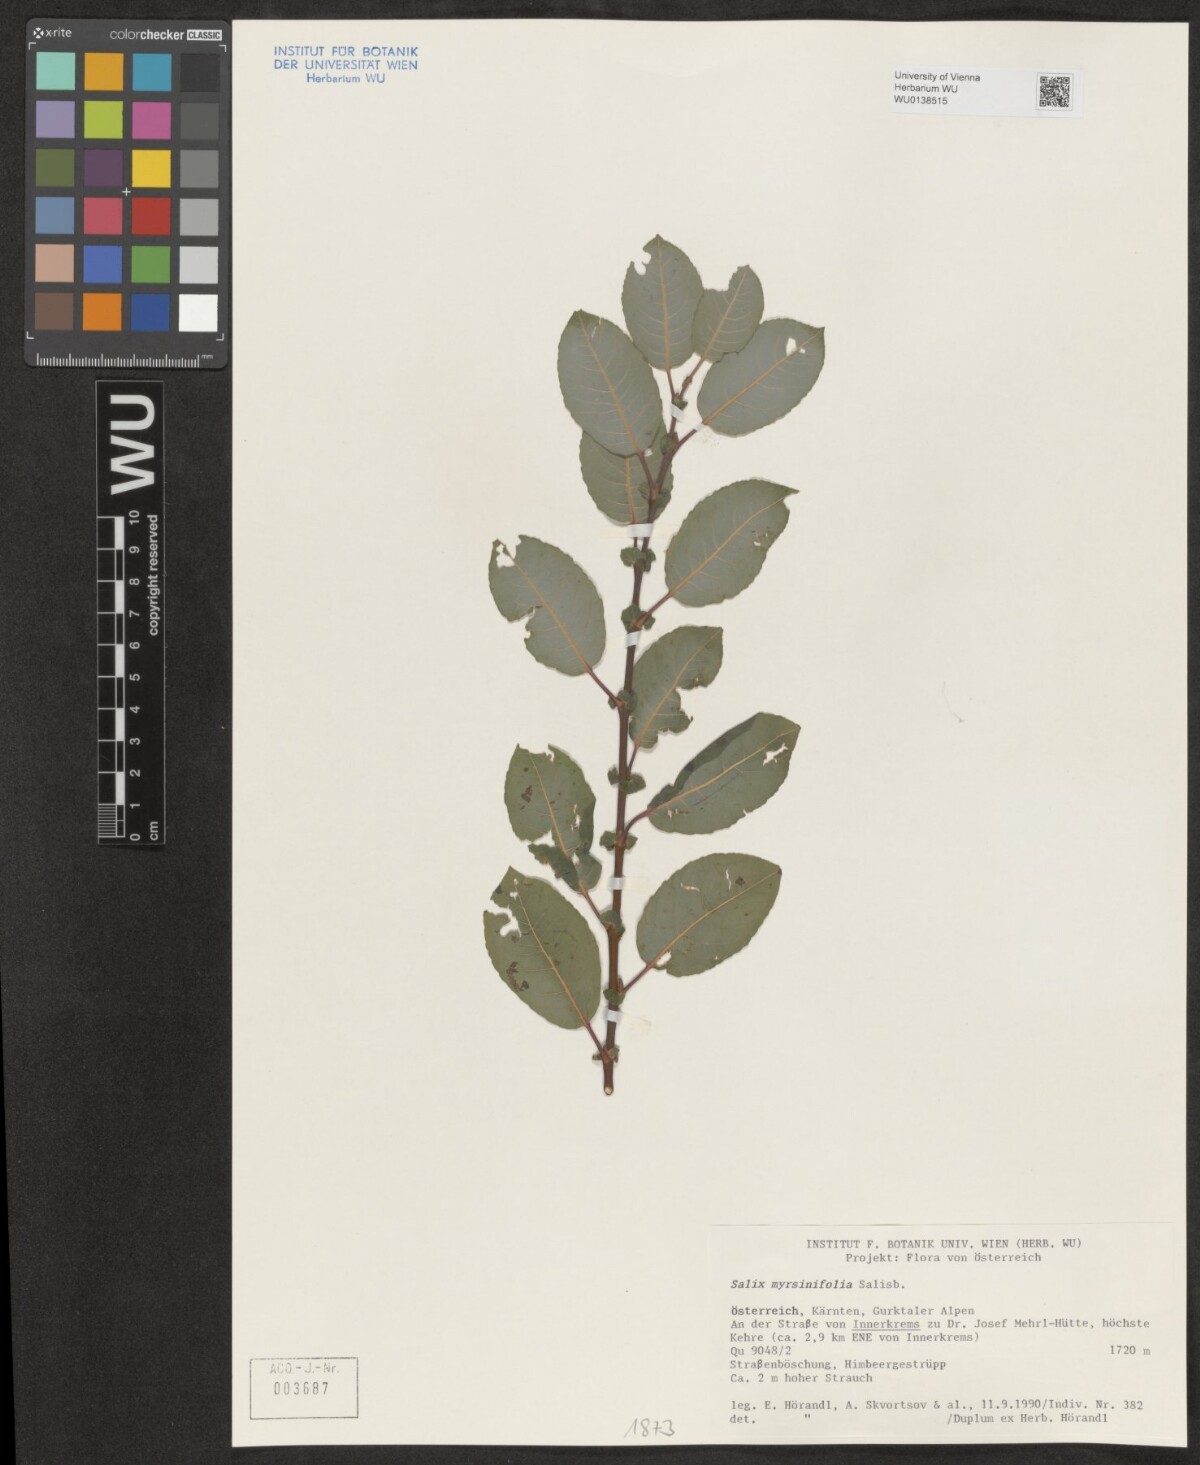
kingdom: Plantae
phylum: Tracheophyta
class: Magnoliopsida
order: Malpighiales
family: Salicaceae
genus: Salix
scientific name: Salix myrsinifolia
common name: Dark-leaved willow
